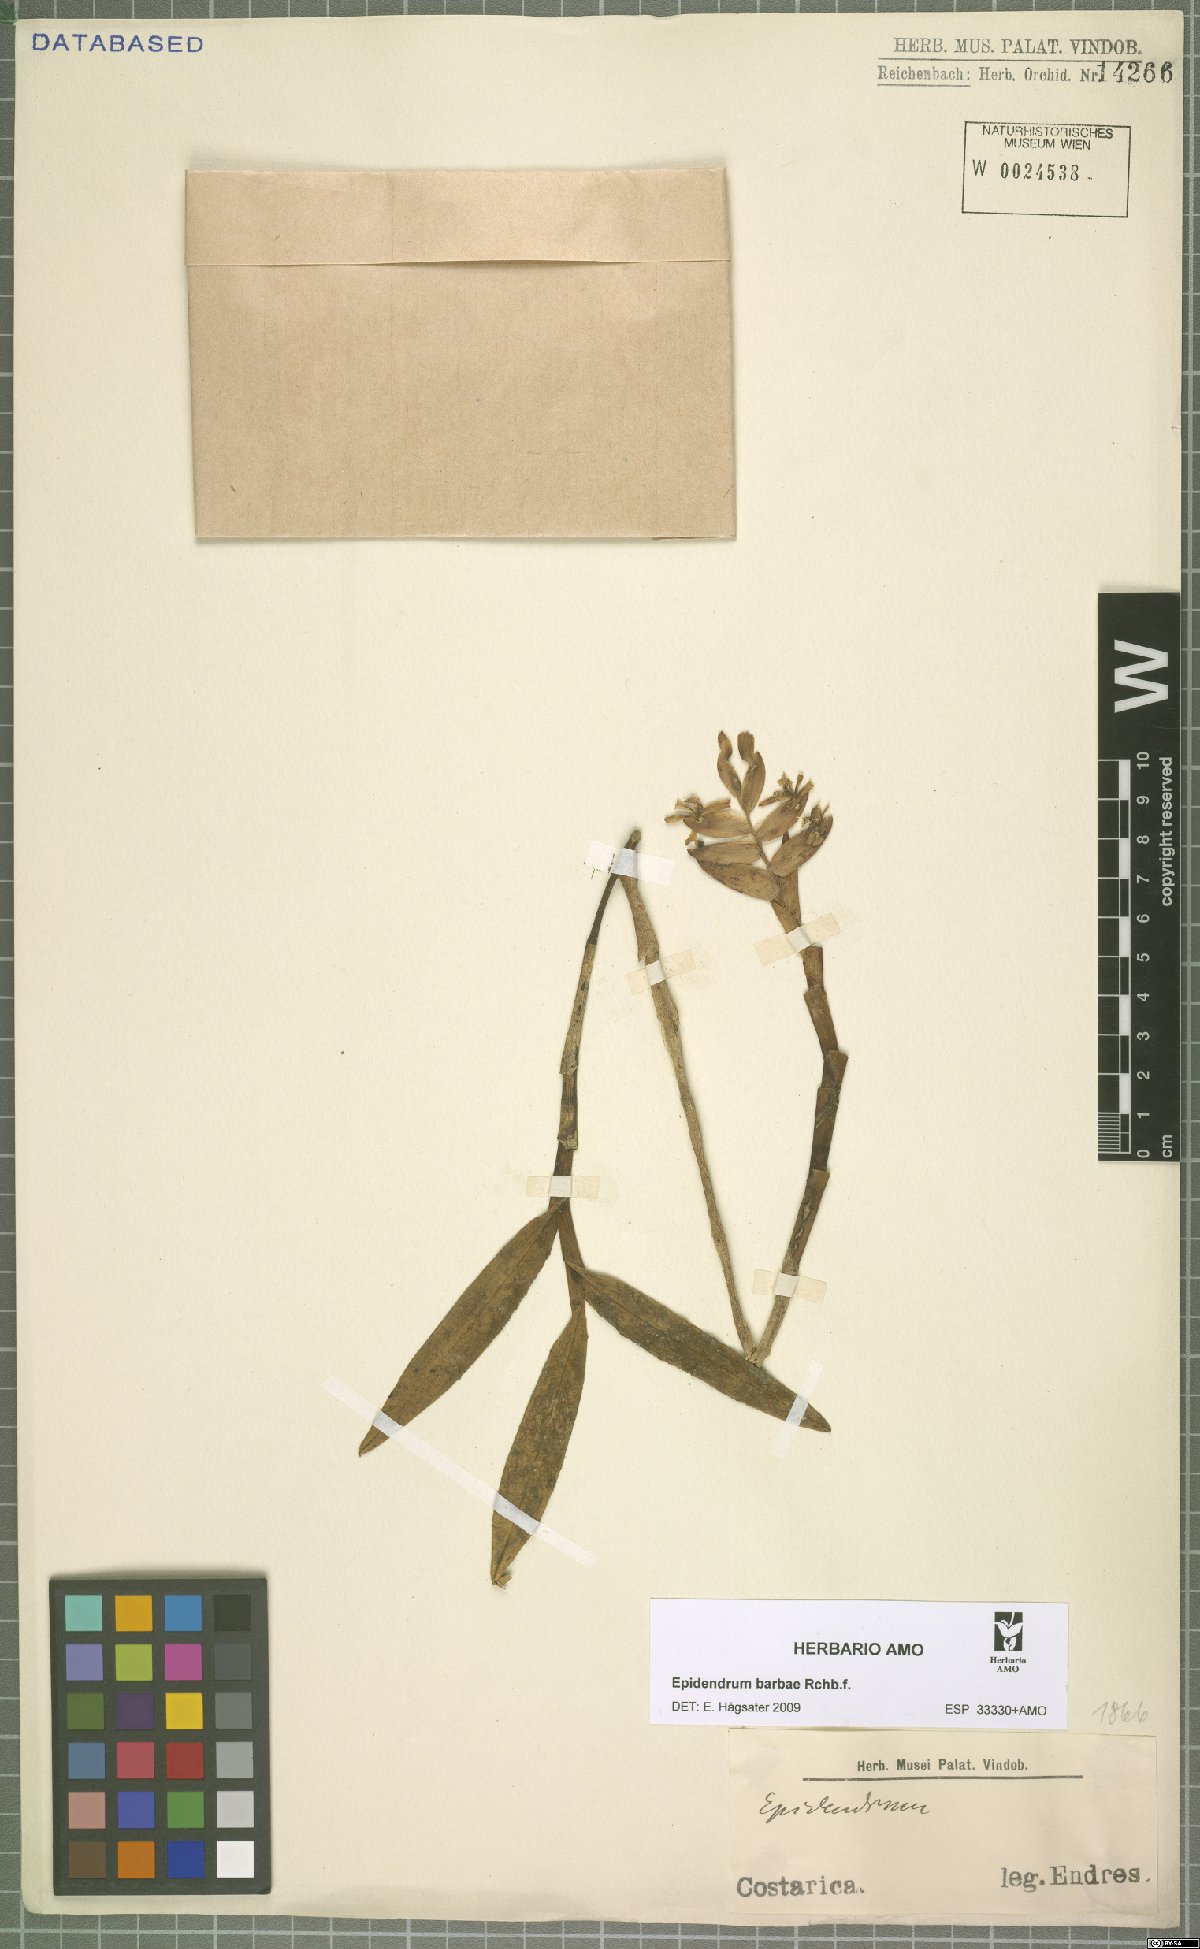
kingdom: Plantae
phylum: Tracheophyta
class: Liliopsida
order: Asparagales
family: Orchidaceae
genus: Epidendrum
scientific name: Epidendrum barbae
